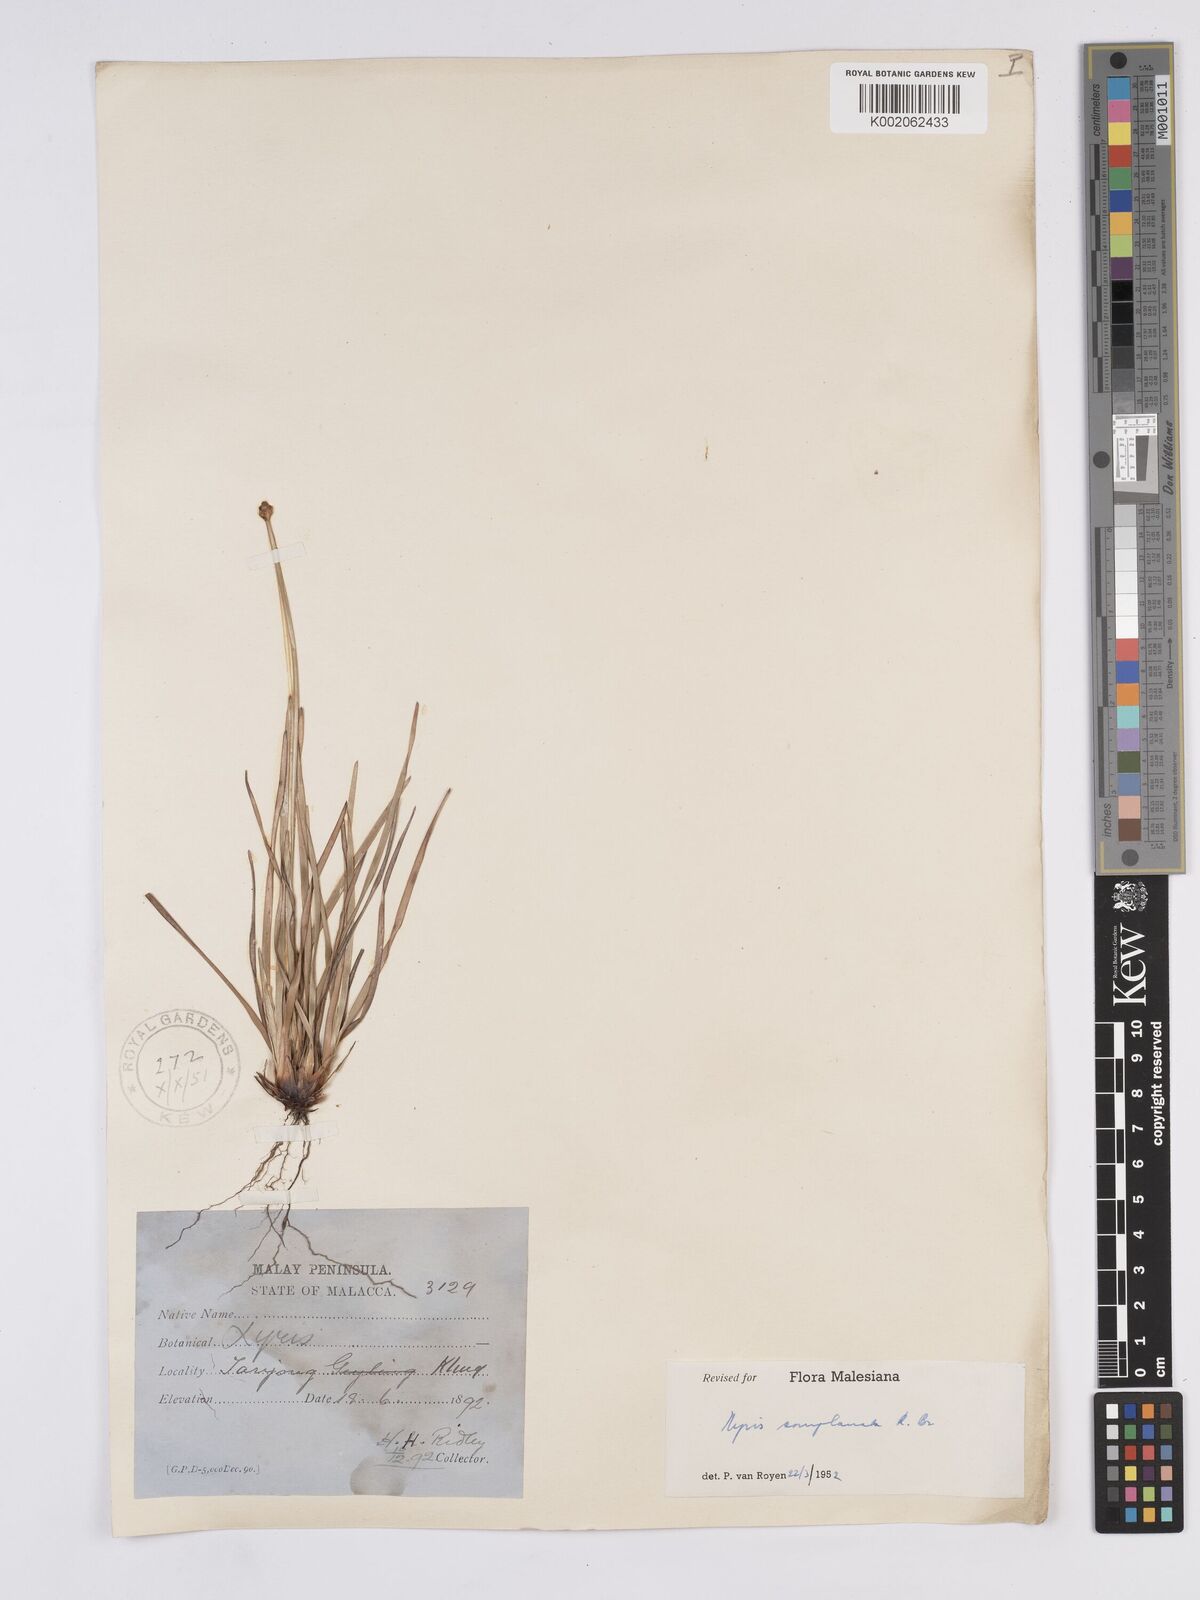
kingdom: Plantae
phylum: Tracheophyta
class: Liliopsida
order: Poales
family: Xyridaceae
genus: Xyris
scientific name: Xyris complanata
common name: Hawai'i yelloweyed grass
